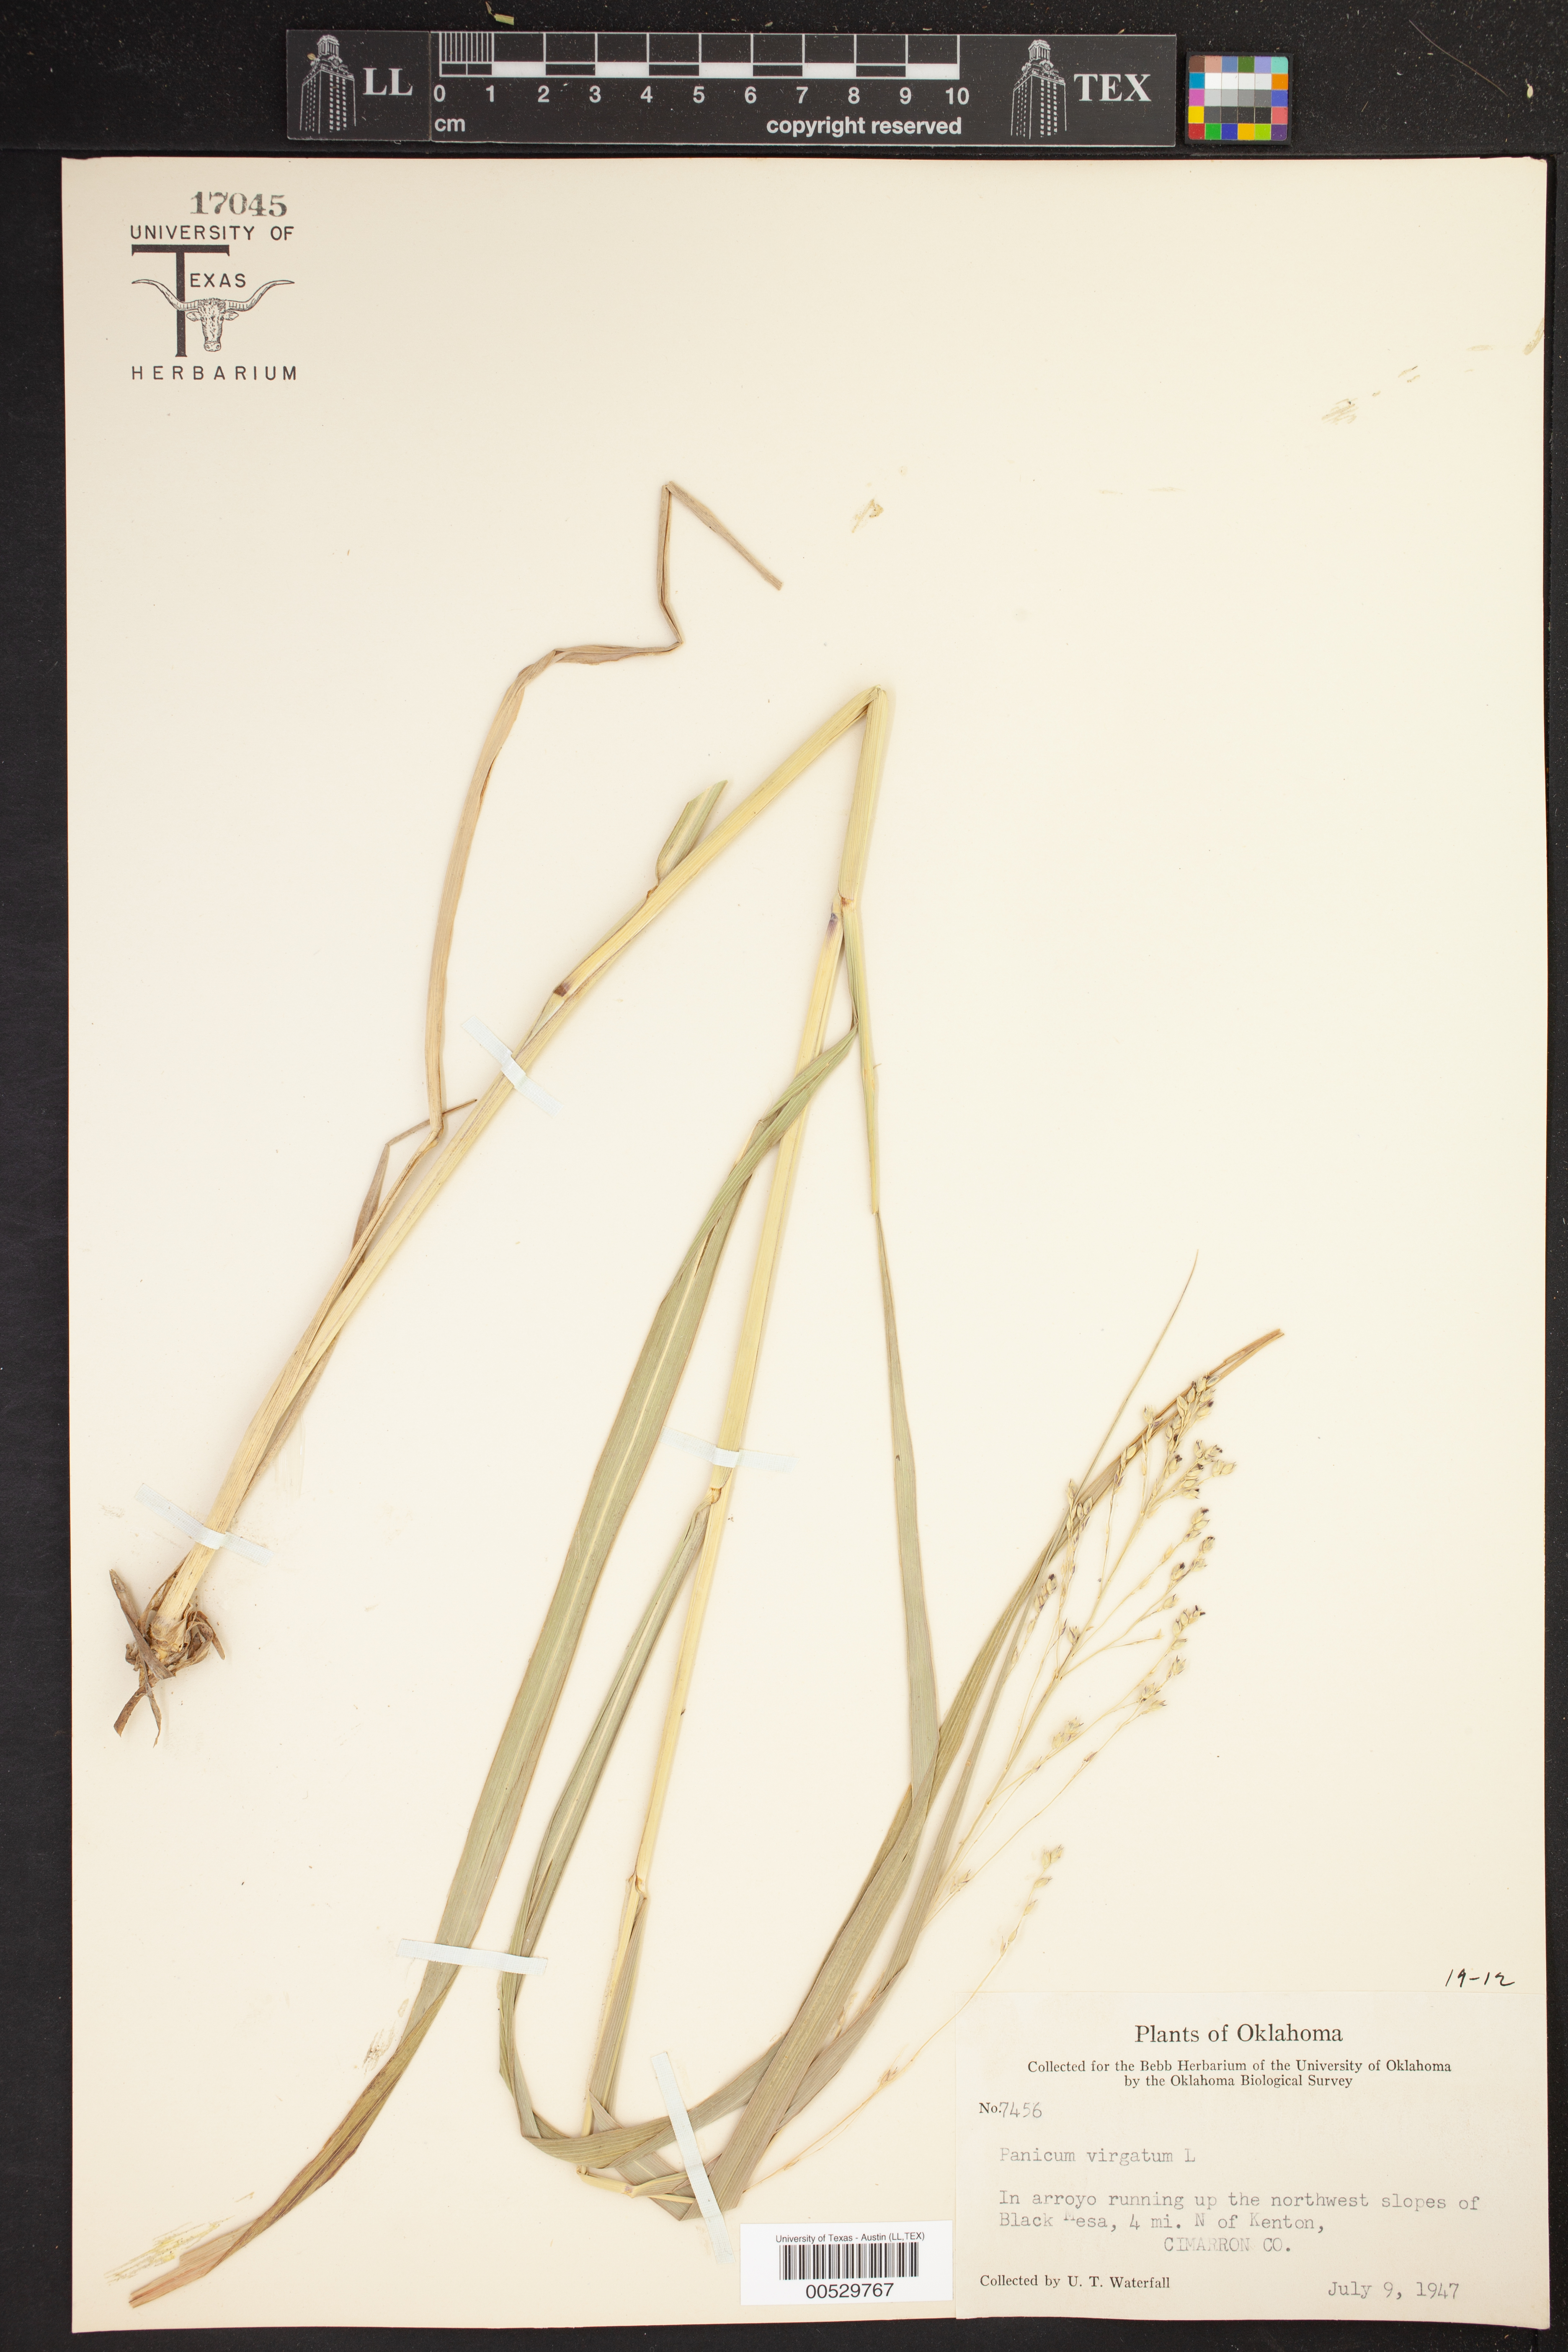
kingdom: Plantae
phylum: Tracheophyta
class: Liliopsida
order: Poales
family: Poaceae
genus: Panicum
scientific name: Panicum virgatum
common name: Switchgrass
